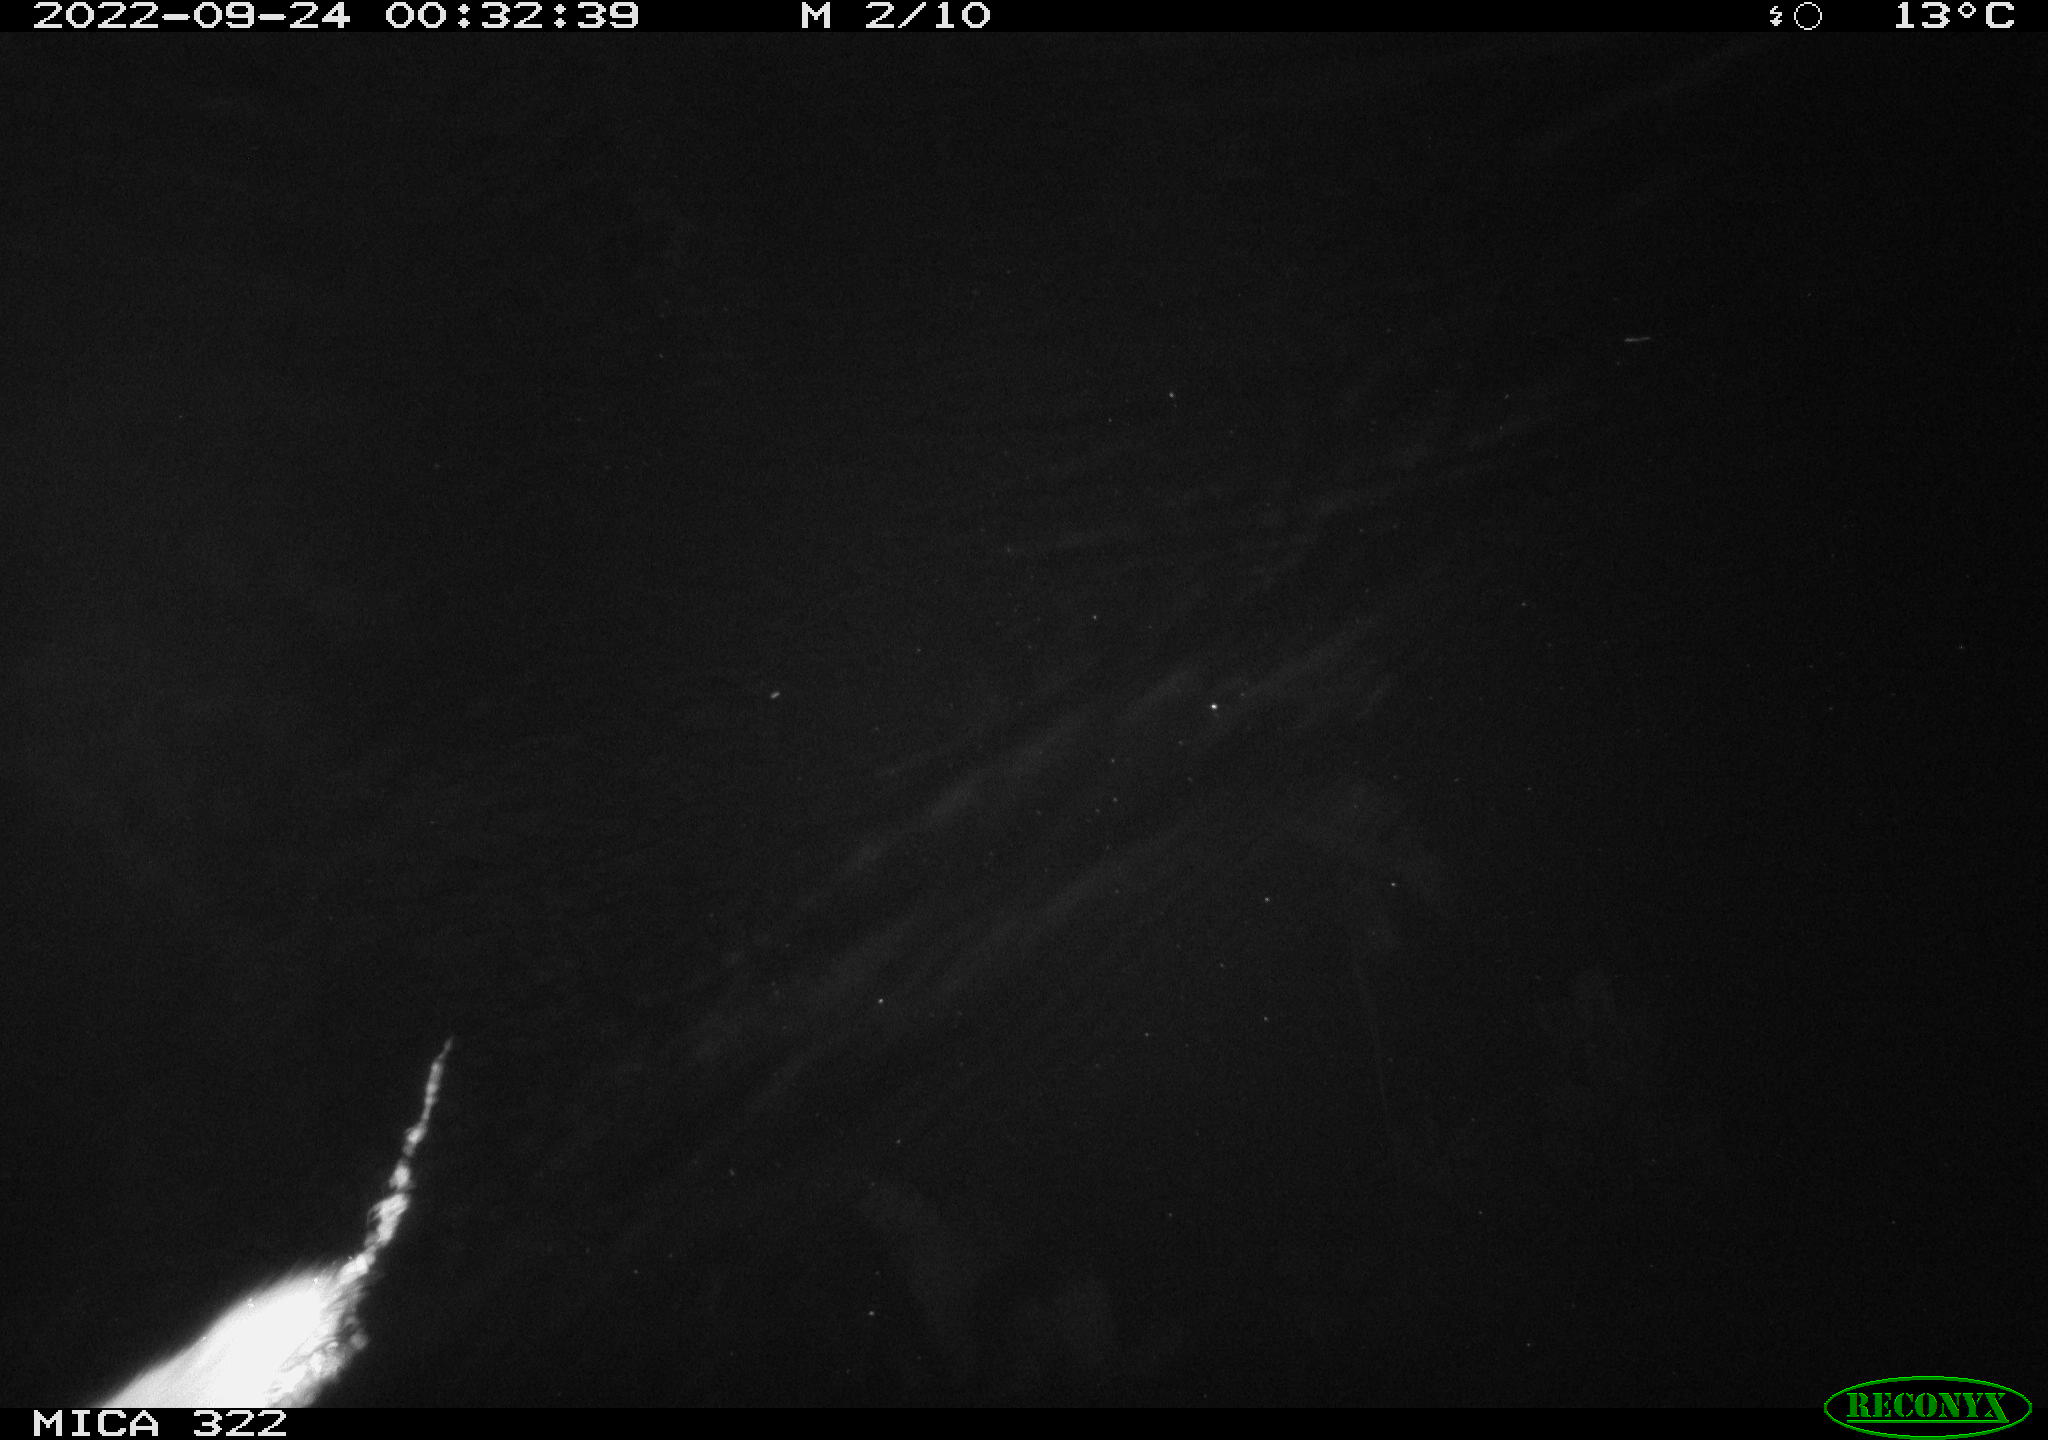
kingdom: Animalia
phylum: Chordata
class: Mammalia
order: Rodentia
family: Muridae
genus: Rattus
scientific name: Rattus norvegicus
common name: Brown rat
